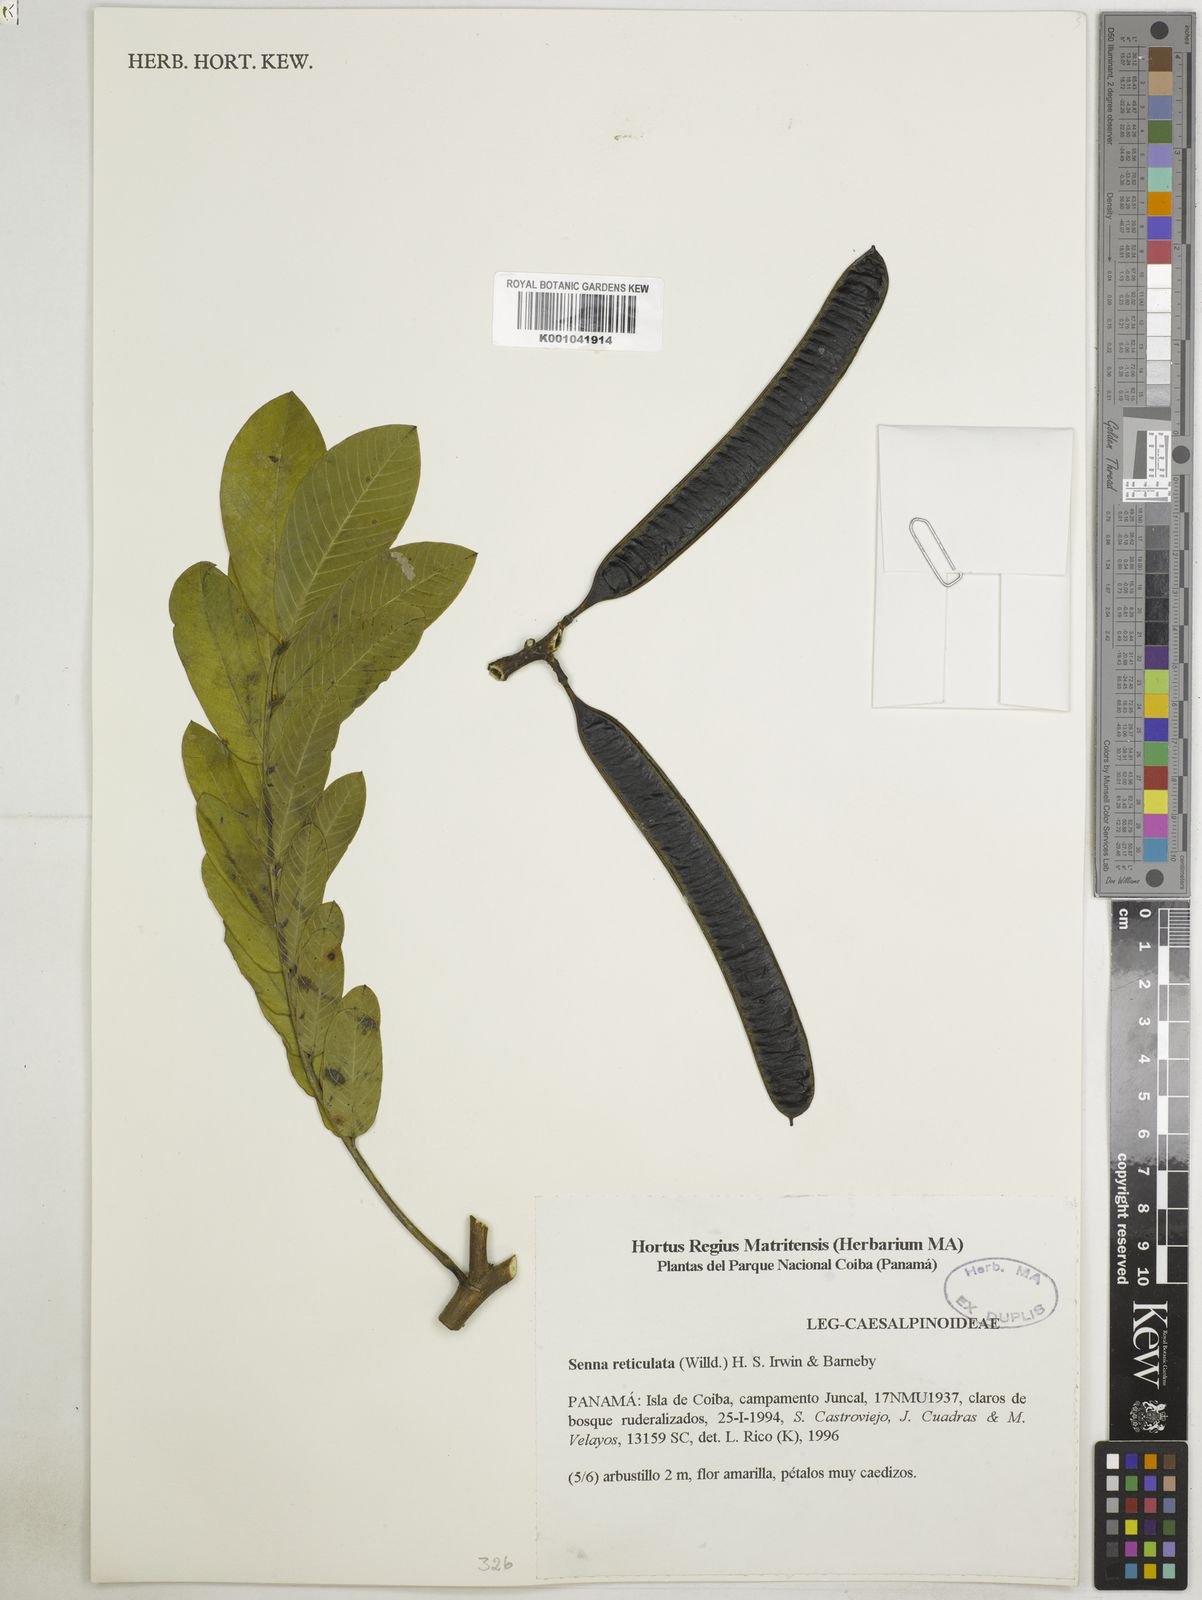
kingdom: Plantae
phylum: Tracheophyta
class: Magnoliopsida
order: Fabales
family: Fabaceae
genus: Senna
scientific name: Senna reticulata
